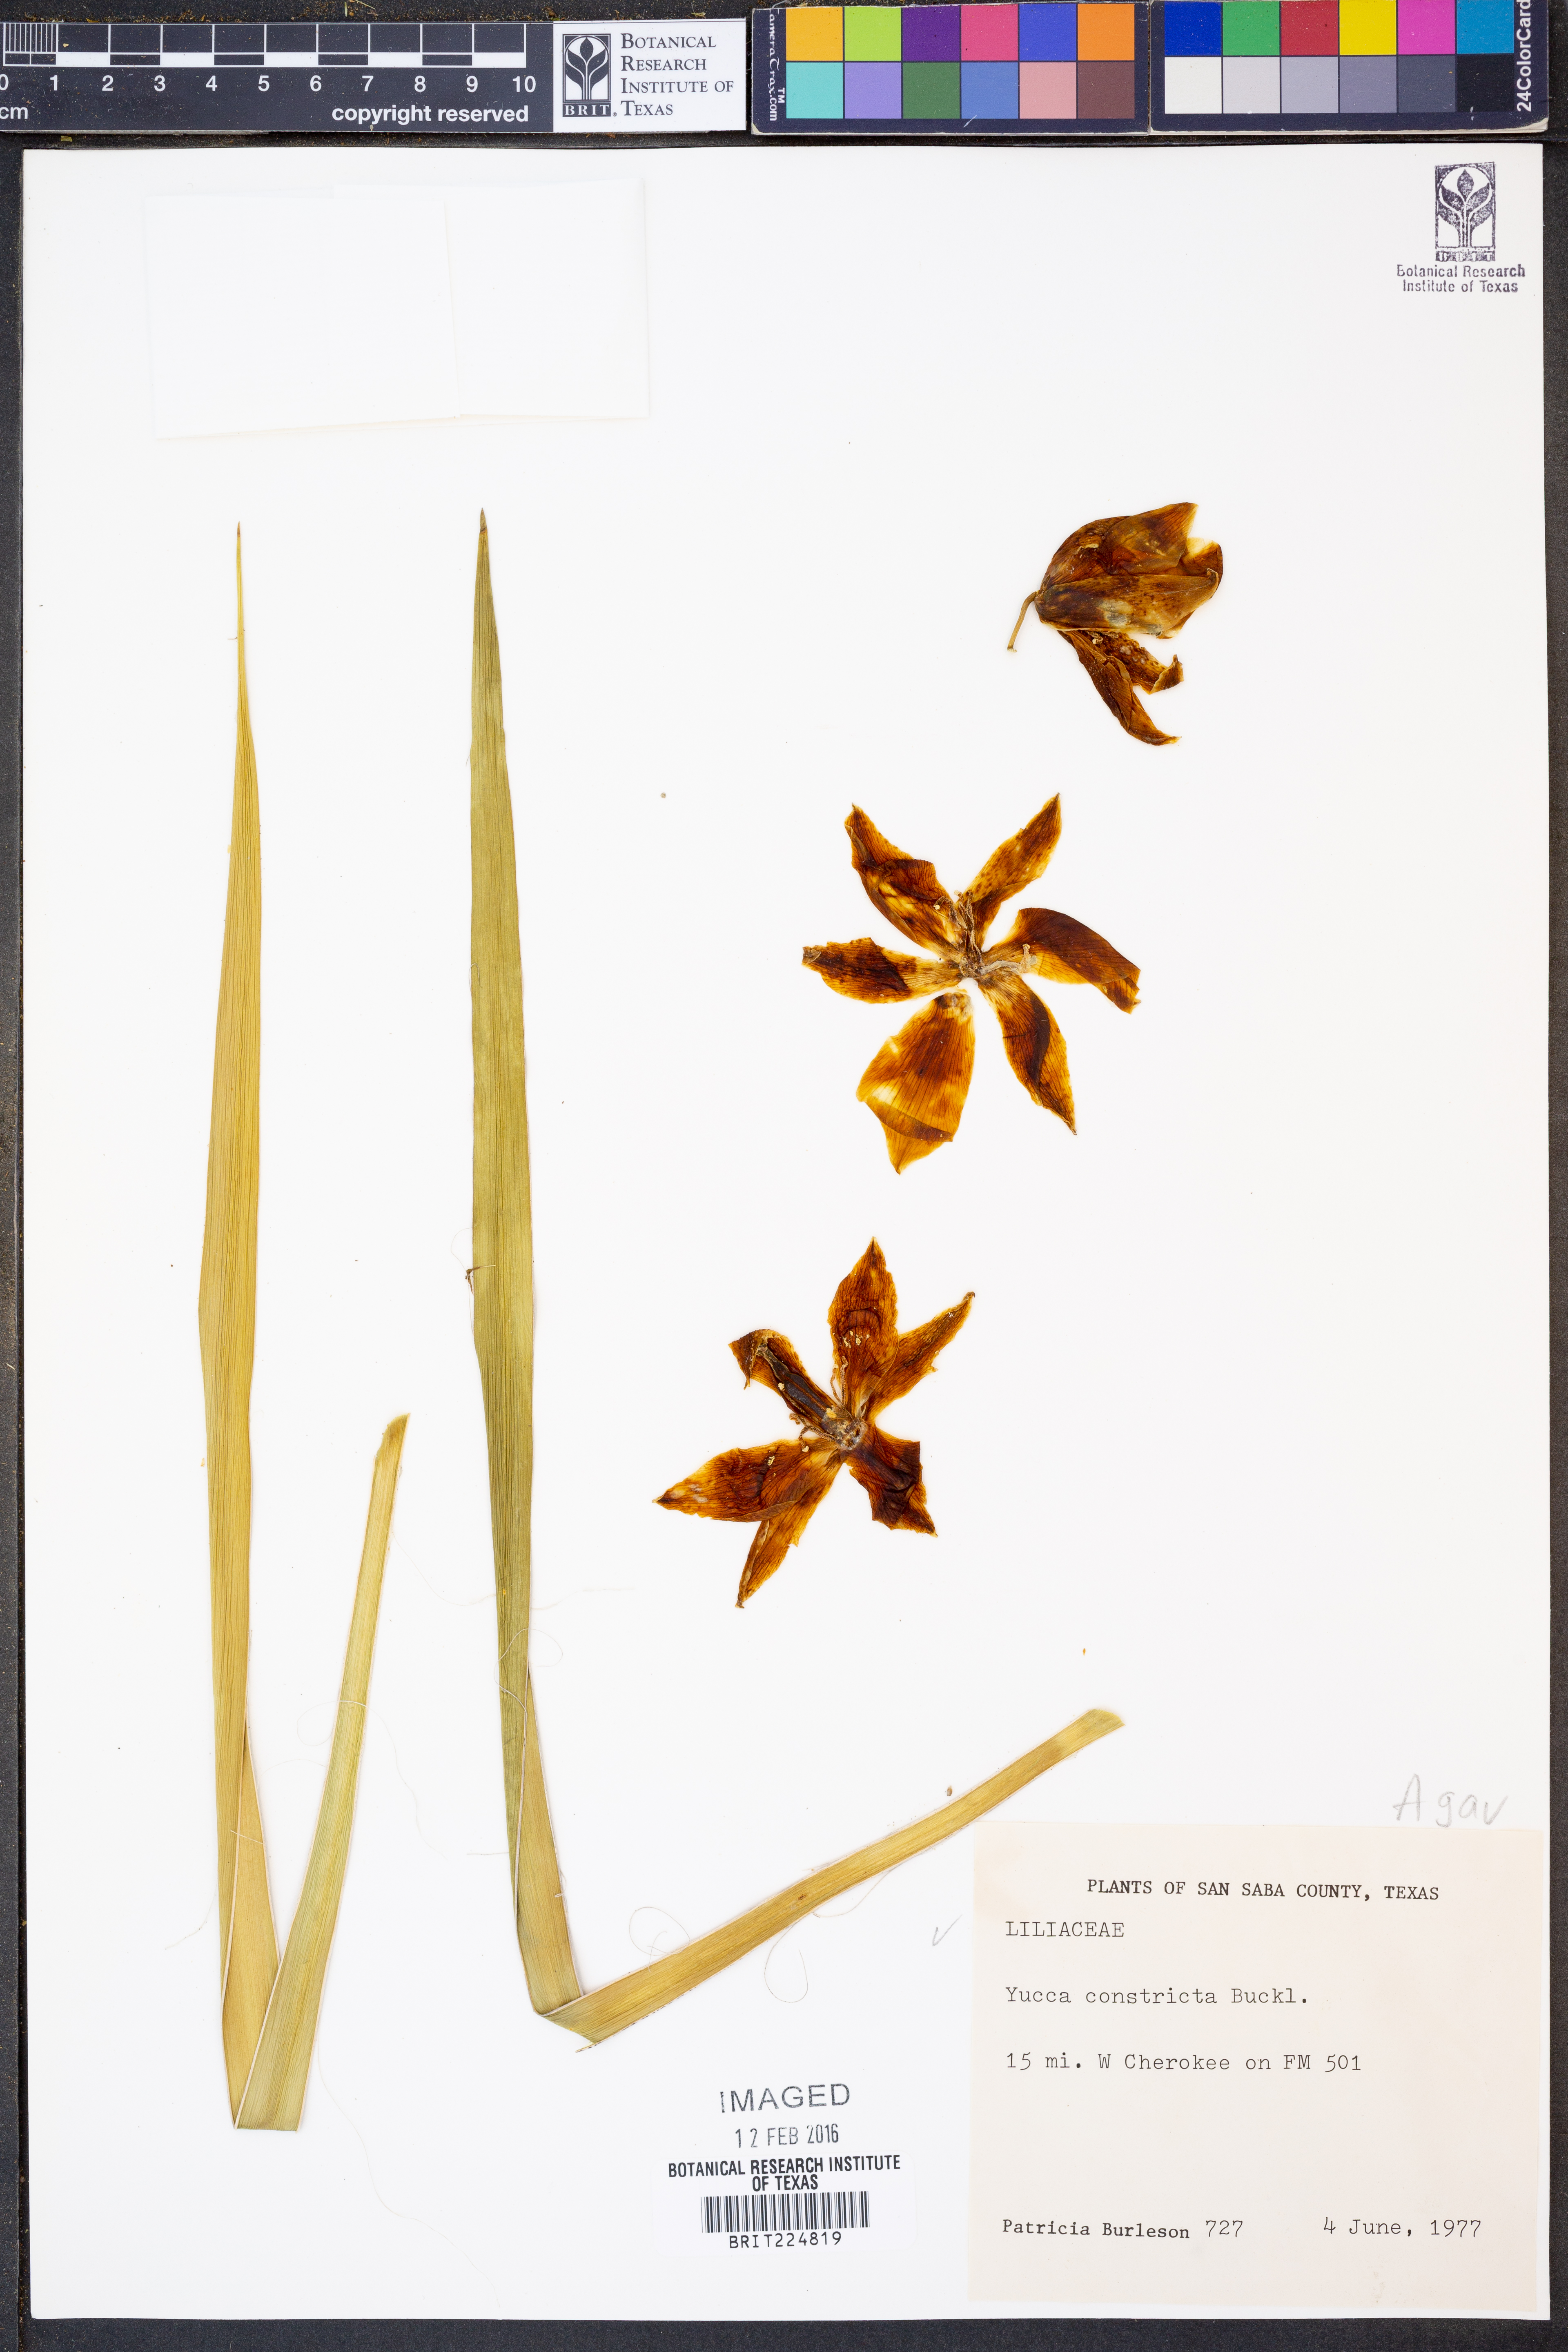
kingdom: Plantae
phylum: Tracheophyta
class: Liliopsida
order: Asparagales
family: Asparagaceae
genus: Yucca
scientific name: Yucca constricta
